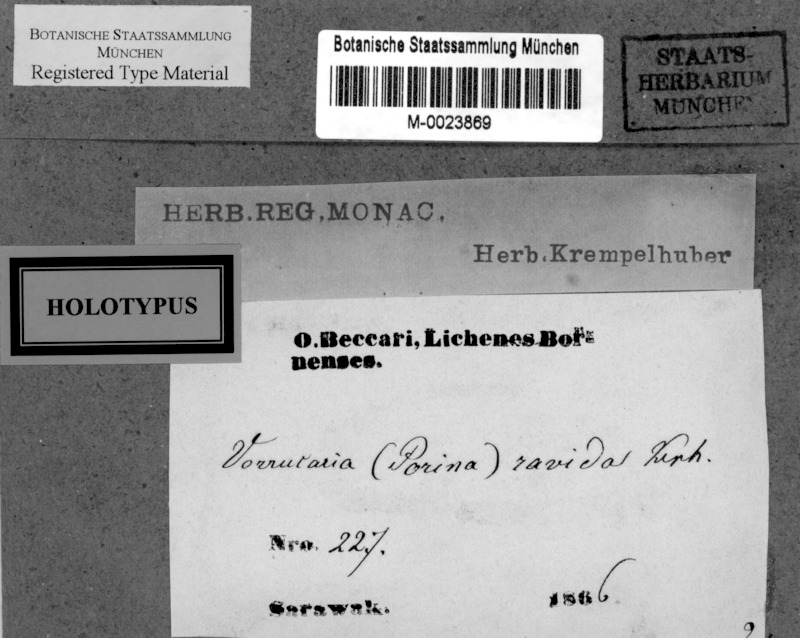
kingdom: Fungi
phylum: Ascomycota
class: Lecanoromycetes
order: Pertusariales
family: Pertusariaceae
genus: Porina
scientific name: Porina
